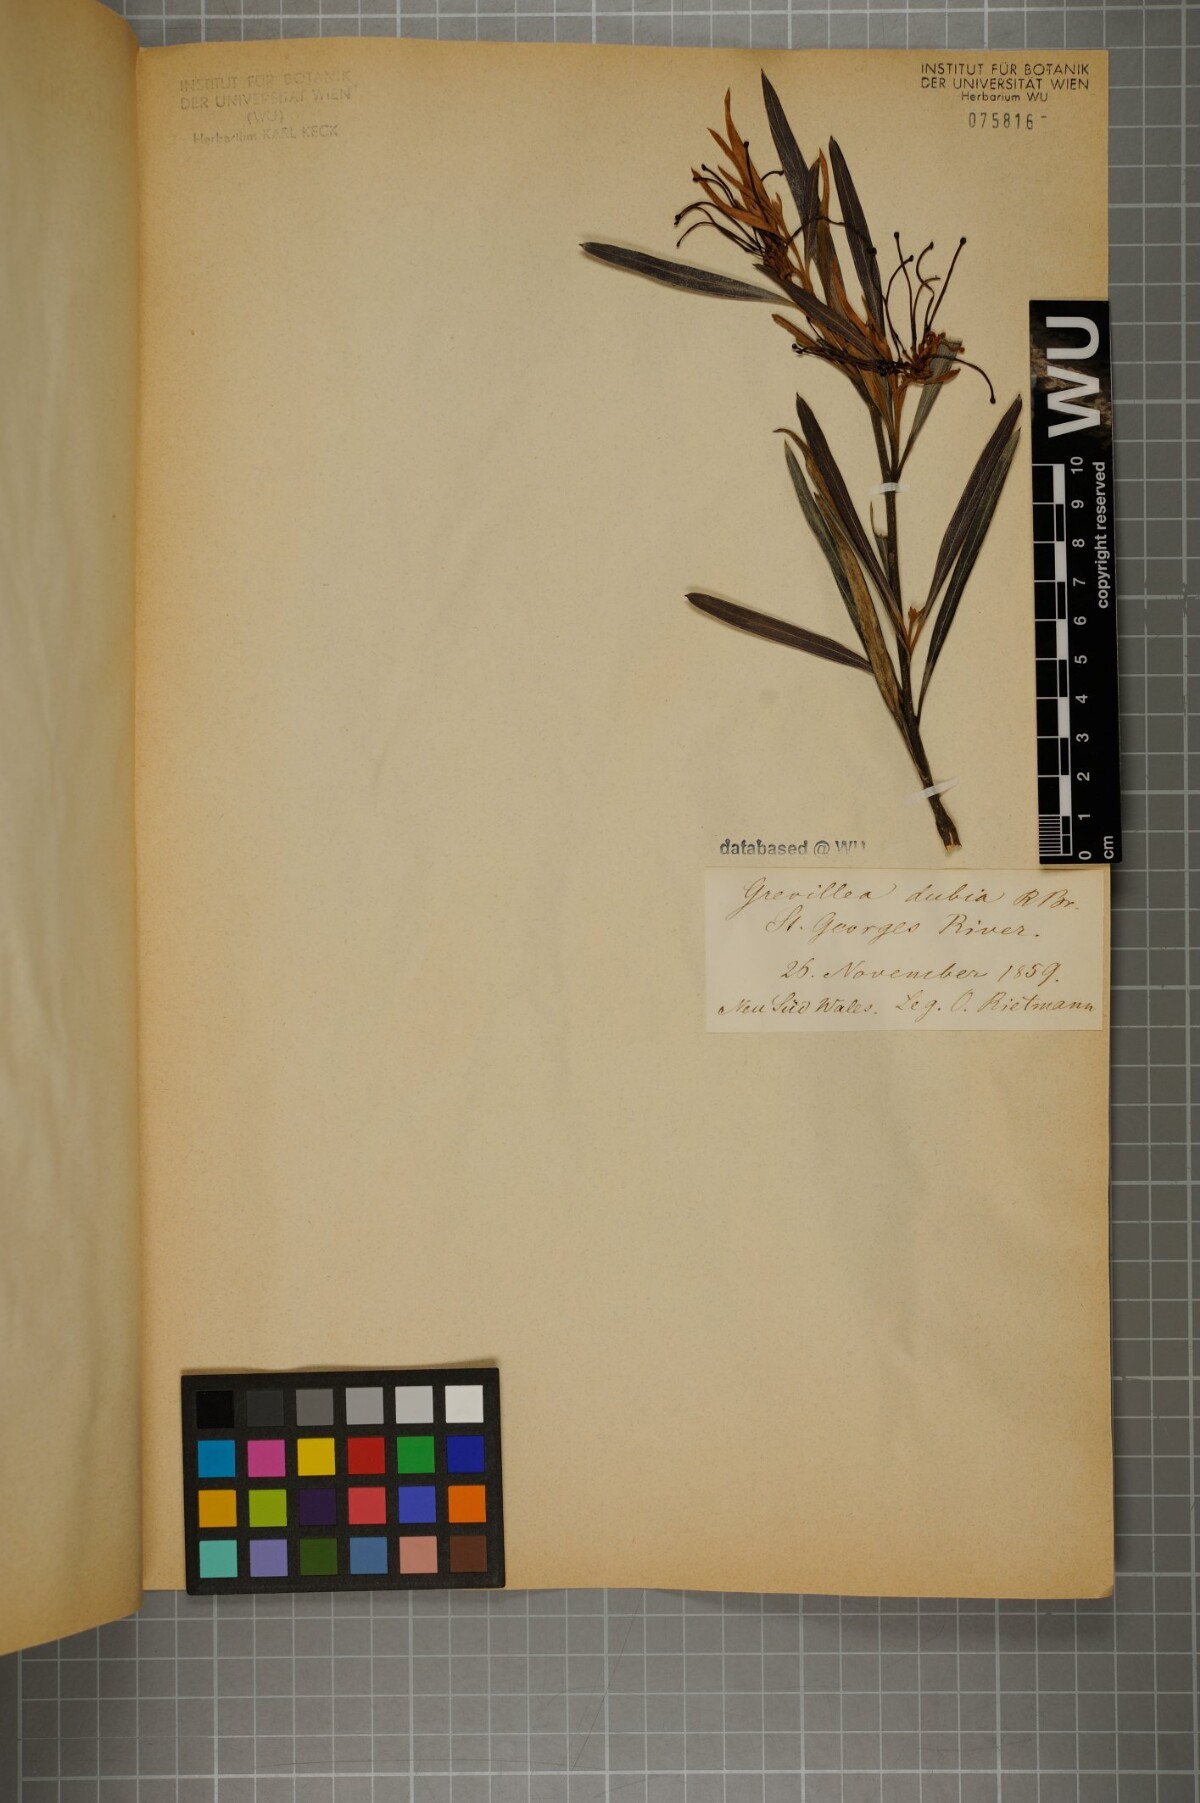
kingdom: Plantae
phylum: Tracheophyta
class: Magnoliopsida
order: Proteales
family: Proteaceae
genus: Grevillea
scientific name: Grevillea speciosa
